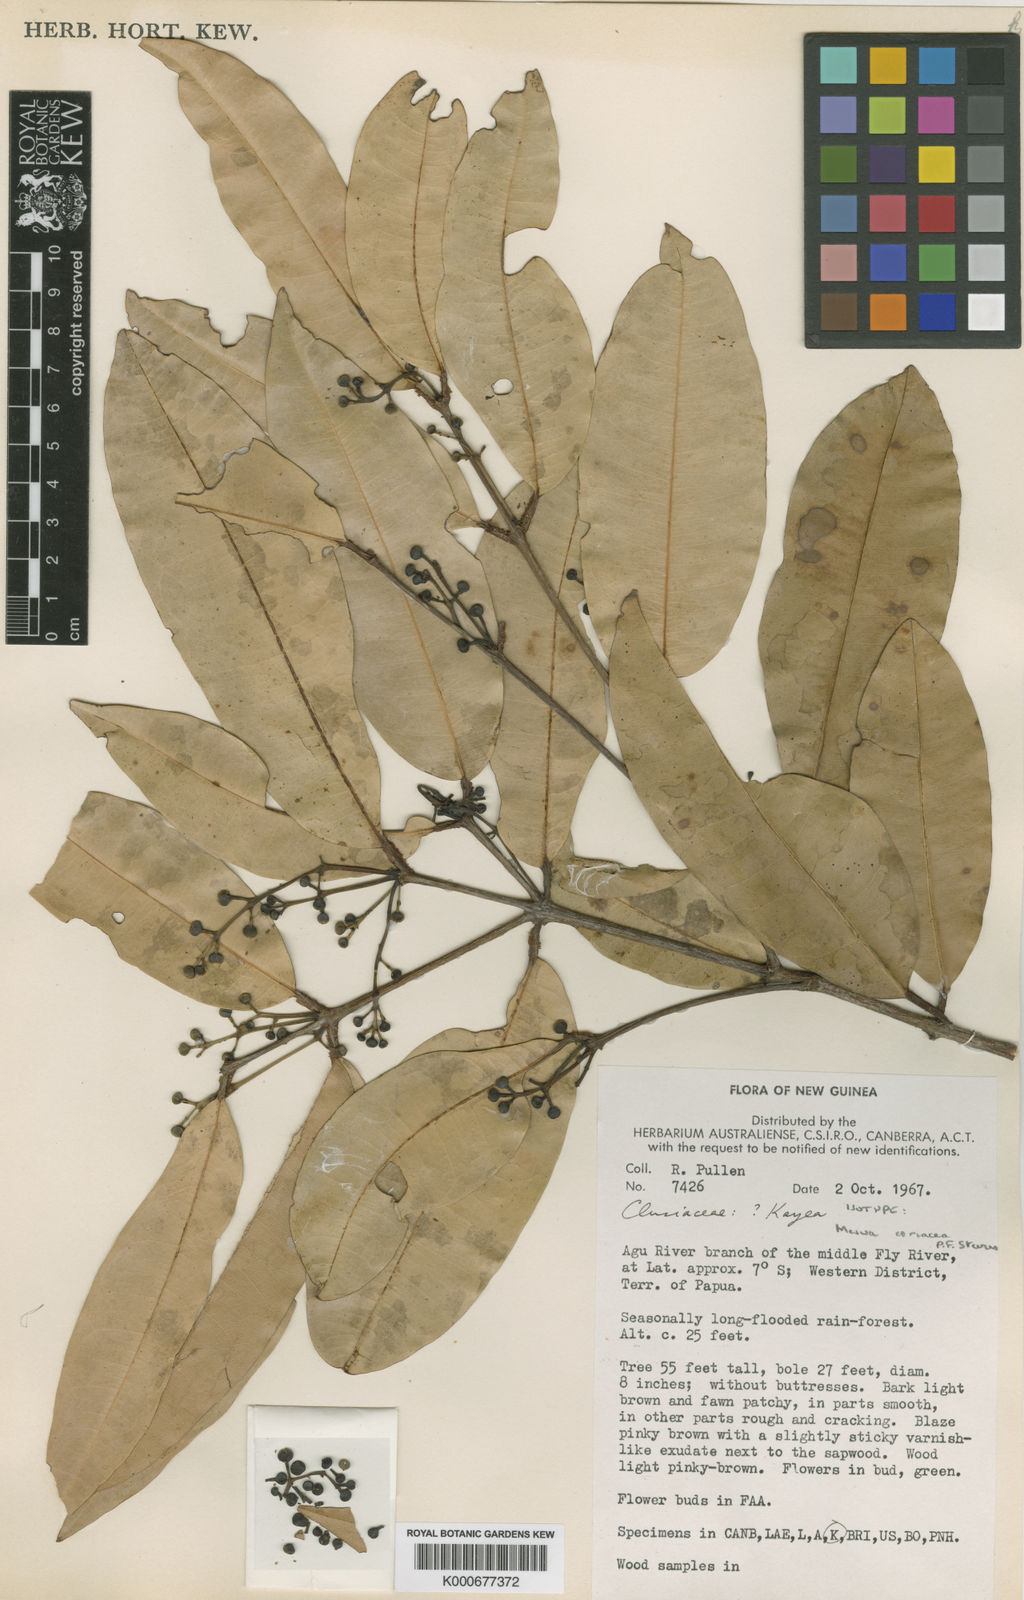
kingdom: Plantae
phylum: Tracheophyta
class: Magnoliopsida
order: Malpighiales
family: Calophyllaceae
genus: Kayea
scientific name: Kayea coriacea
